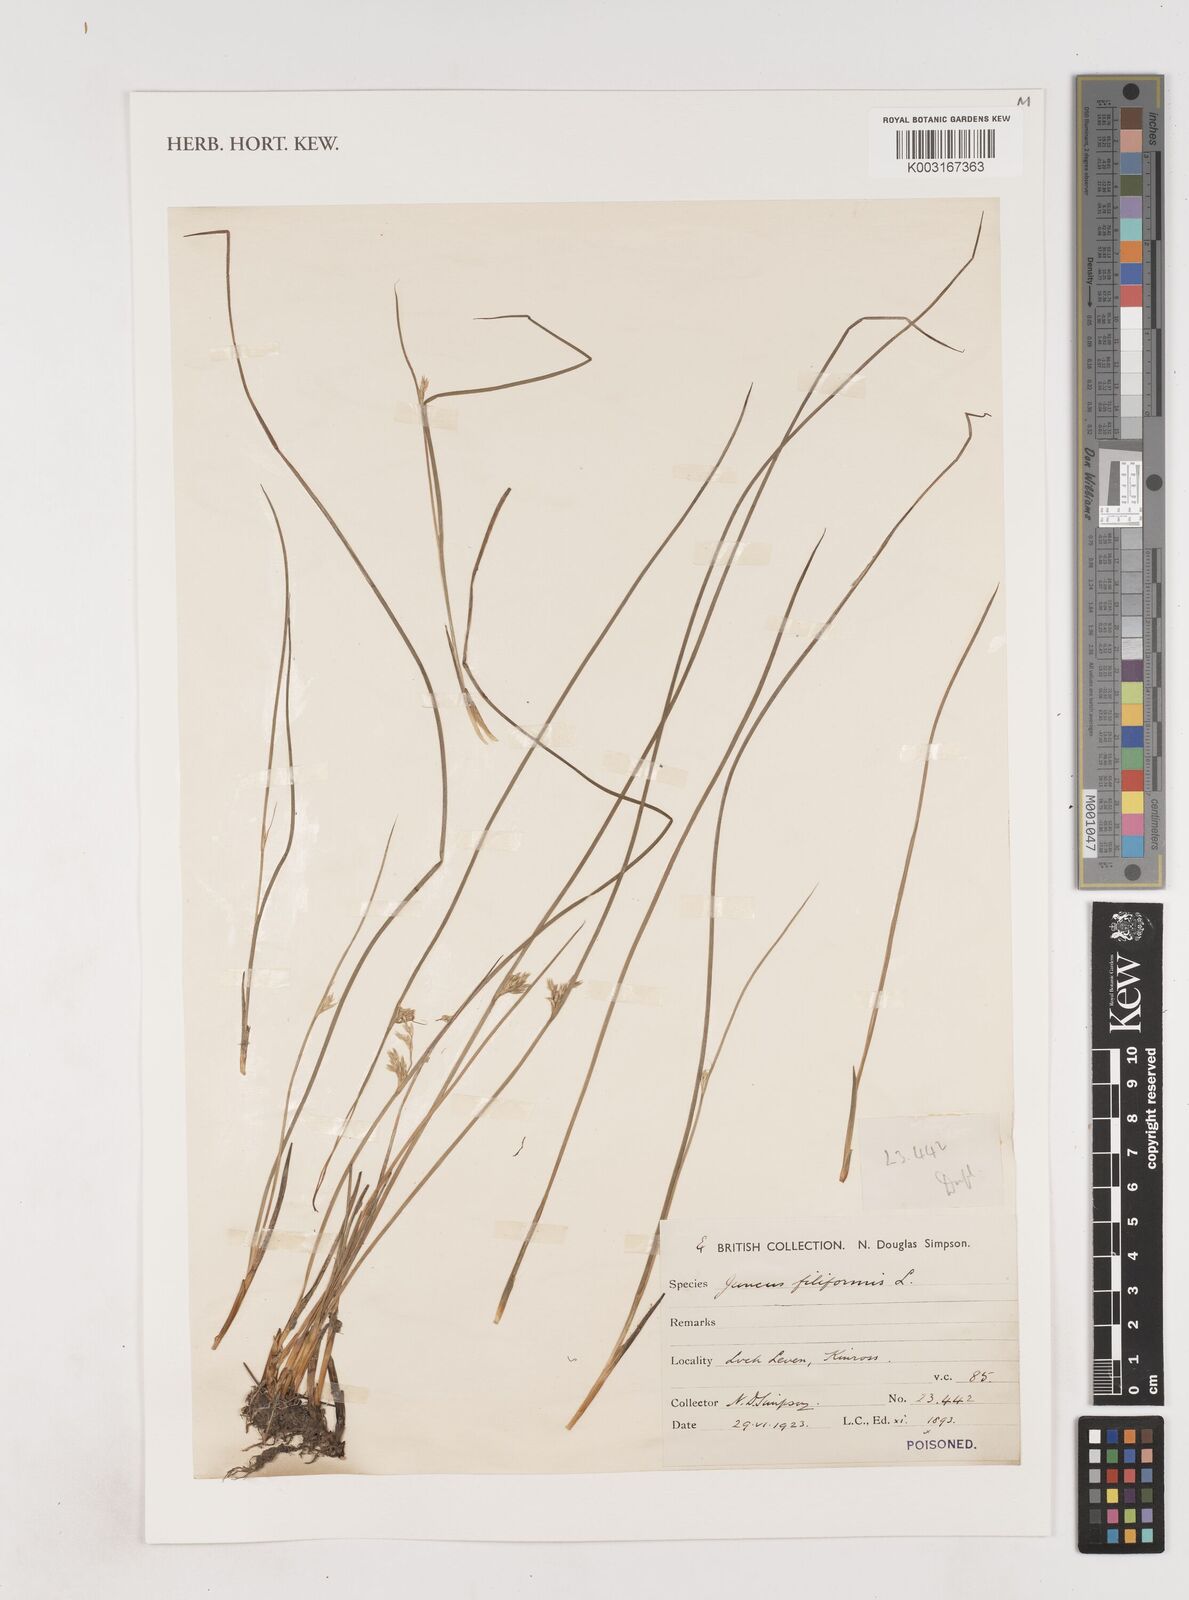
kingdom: Plantae
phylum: Tracheophyta
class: Liliopsida
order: Poales
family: Juncaceae
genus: Juncus
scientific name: Juncus filiformis
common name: Thread rush
